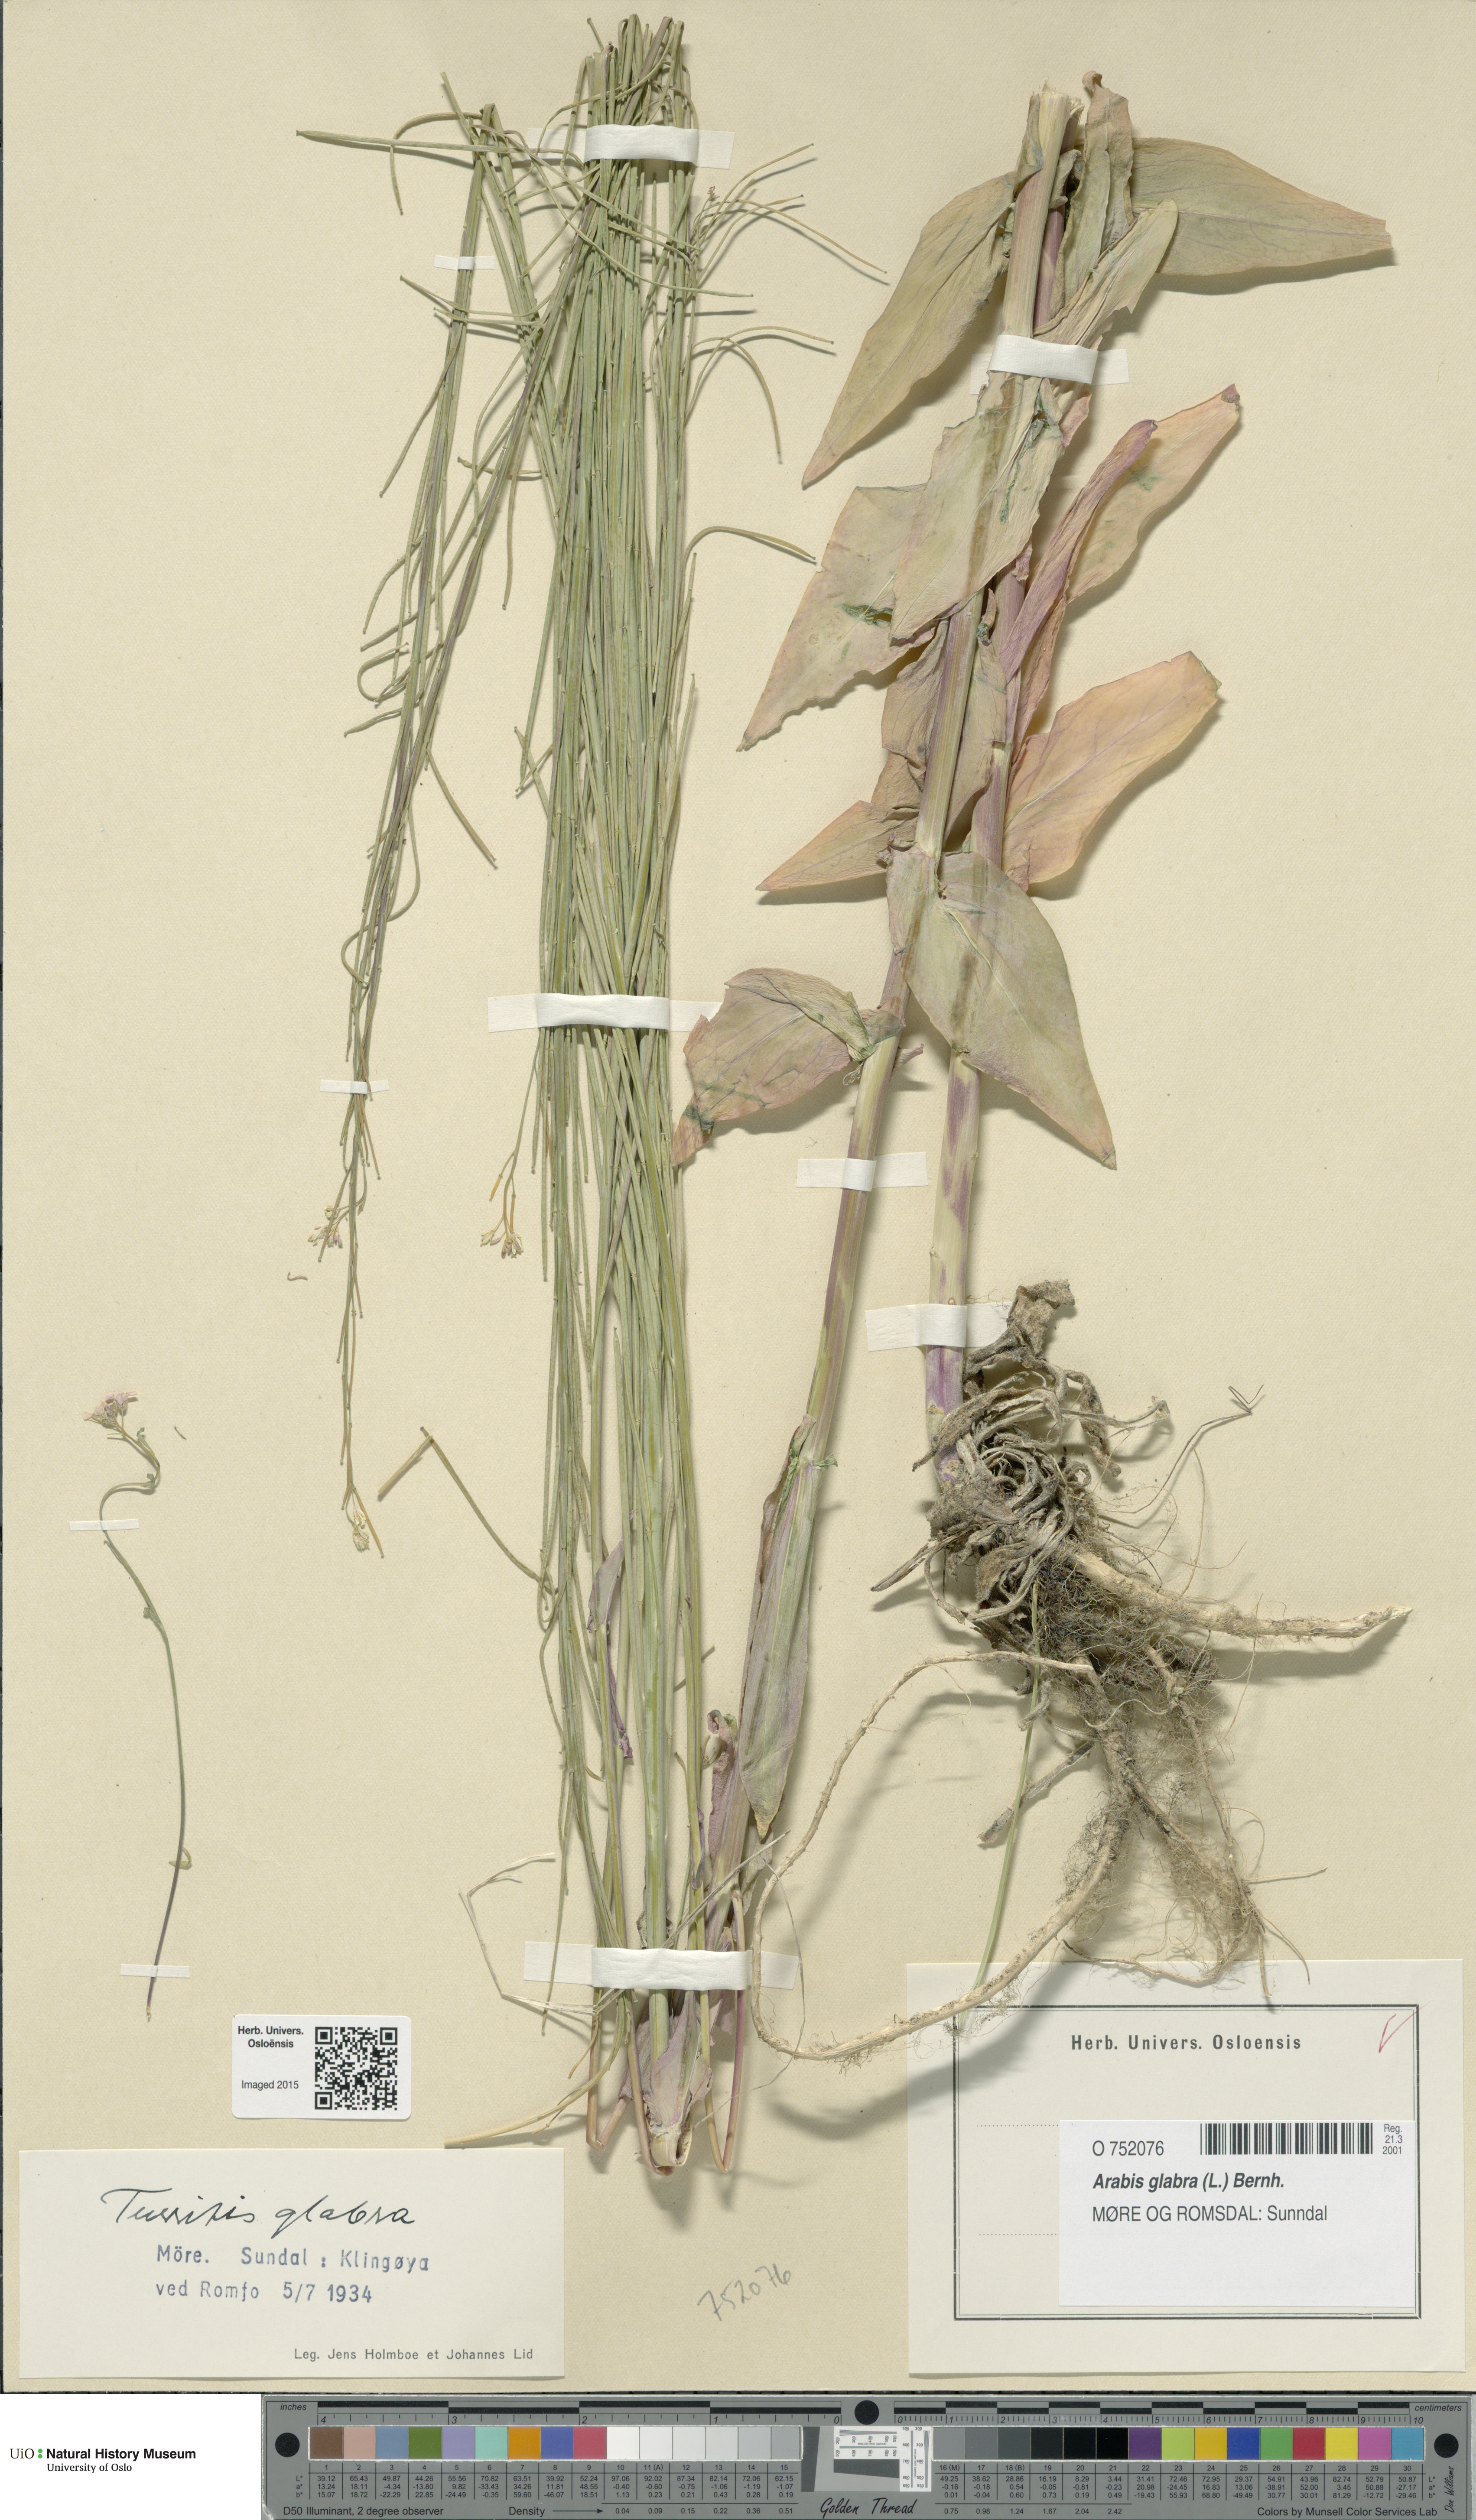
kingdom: Plantae
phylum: Tracheophyta
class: Magnoliopsida
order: Brassicales
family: Brassicaceae
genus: Turritis
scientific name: Turritis glabra
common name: Tower rockcress
